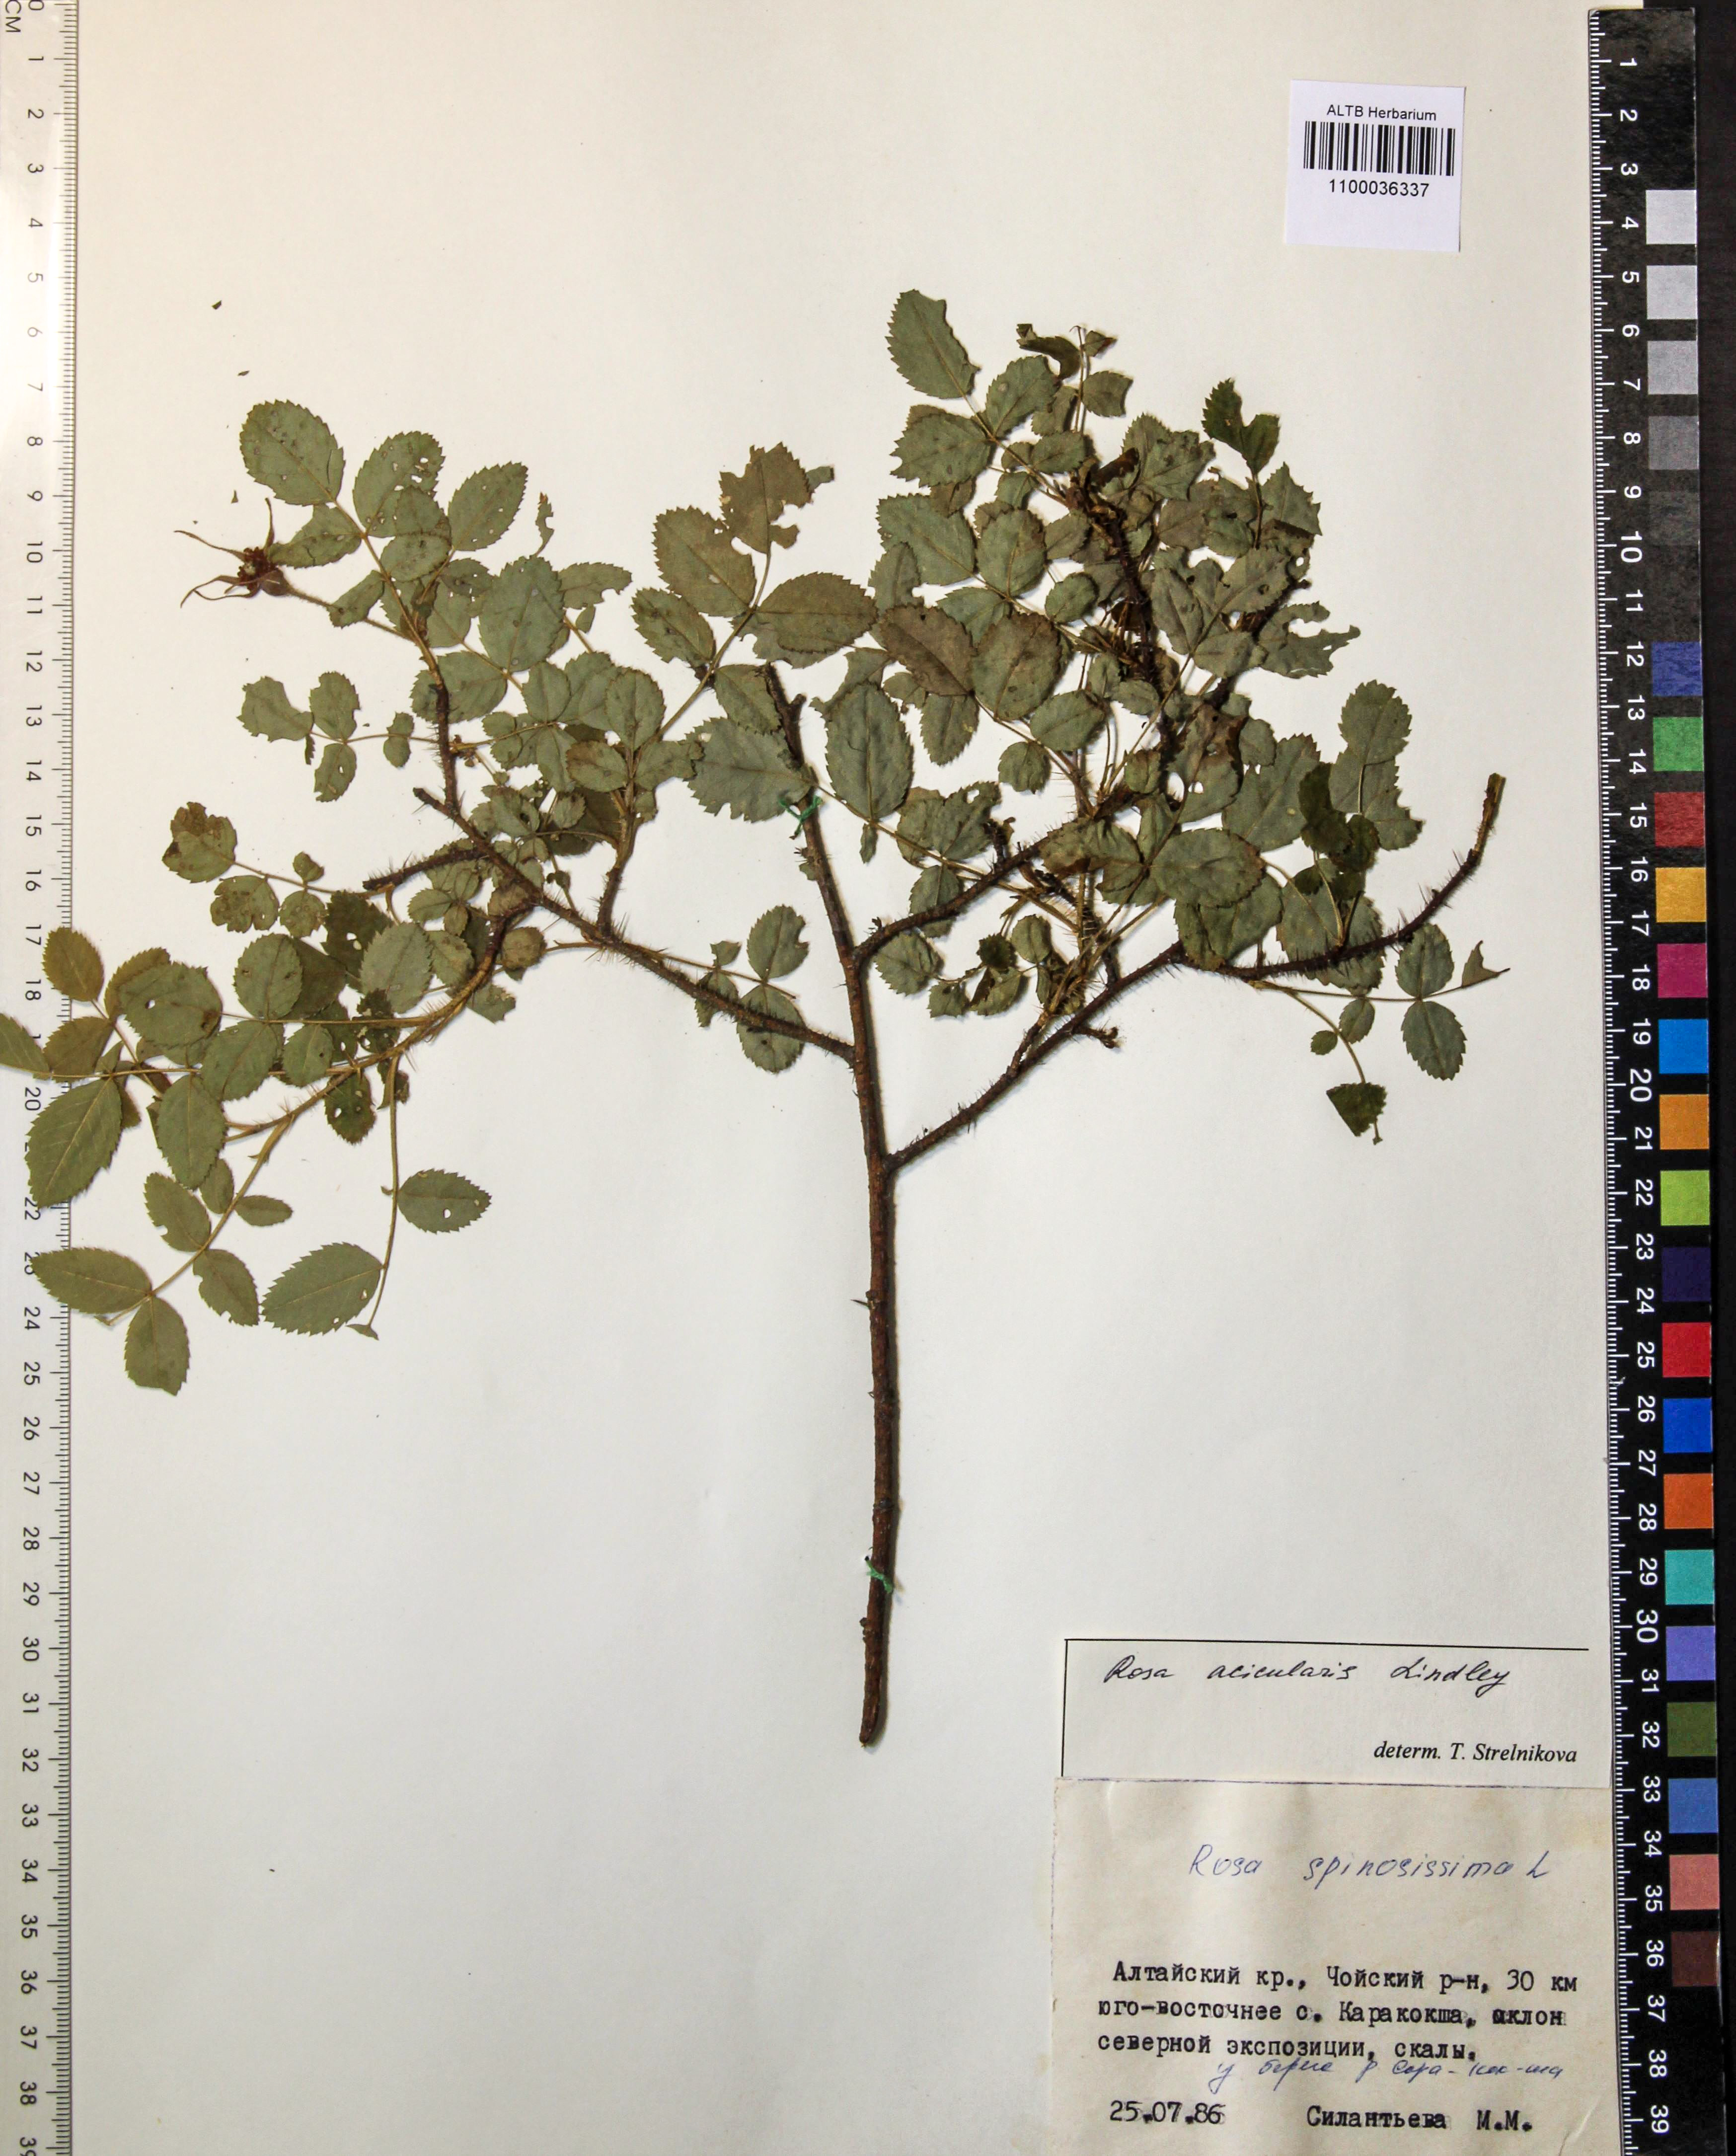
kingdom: Plantae
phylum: Tracheophyta
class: Magnoliopsida
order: Rosales
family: Rosaceae
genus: Rosa
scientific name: Rosa acicularis
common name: Prickly rose
